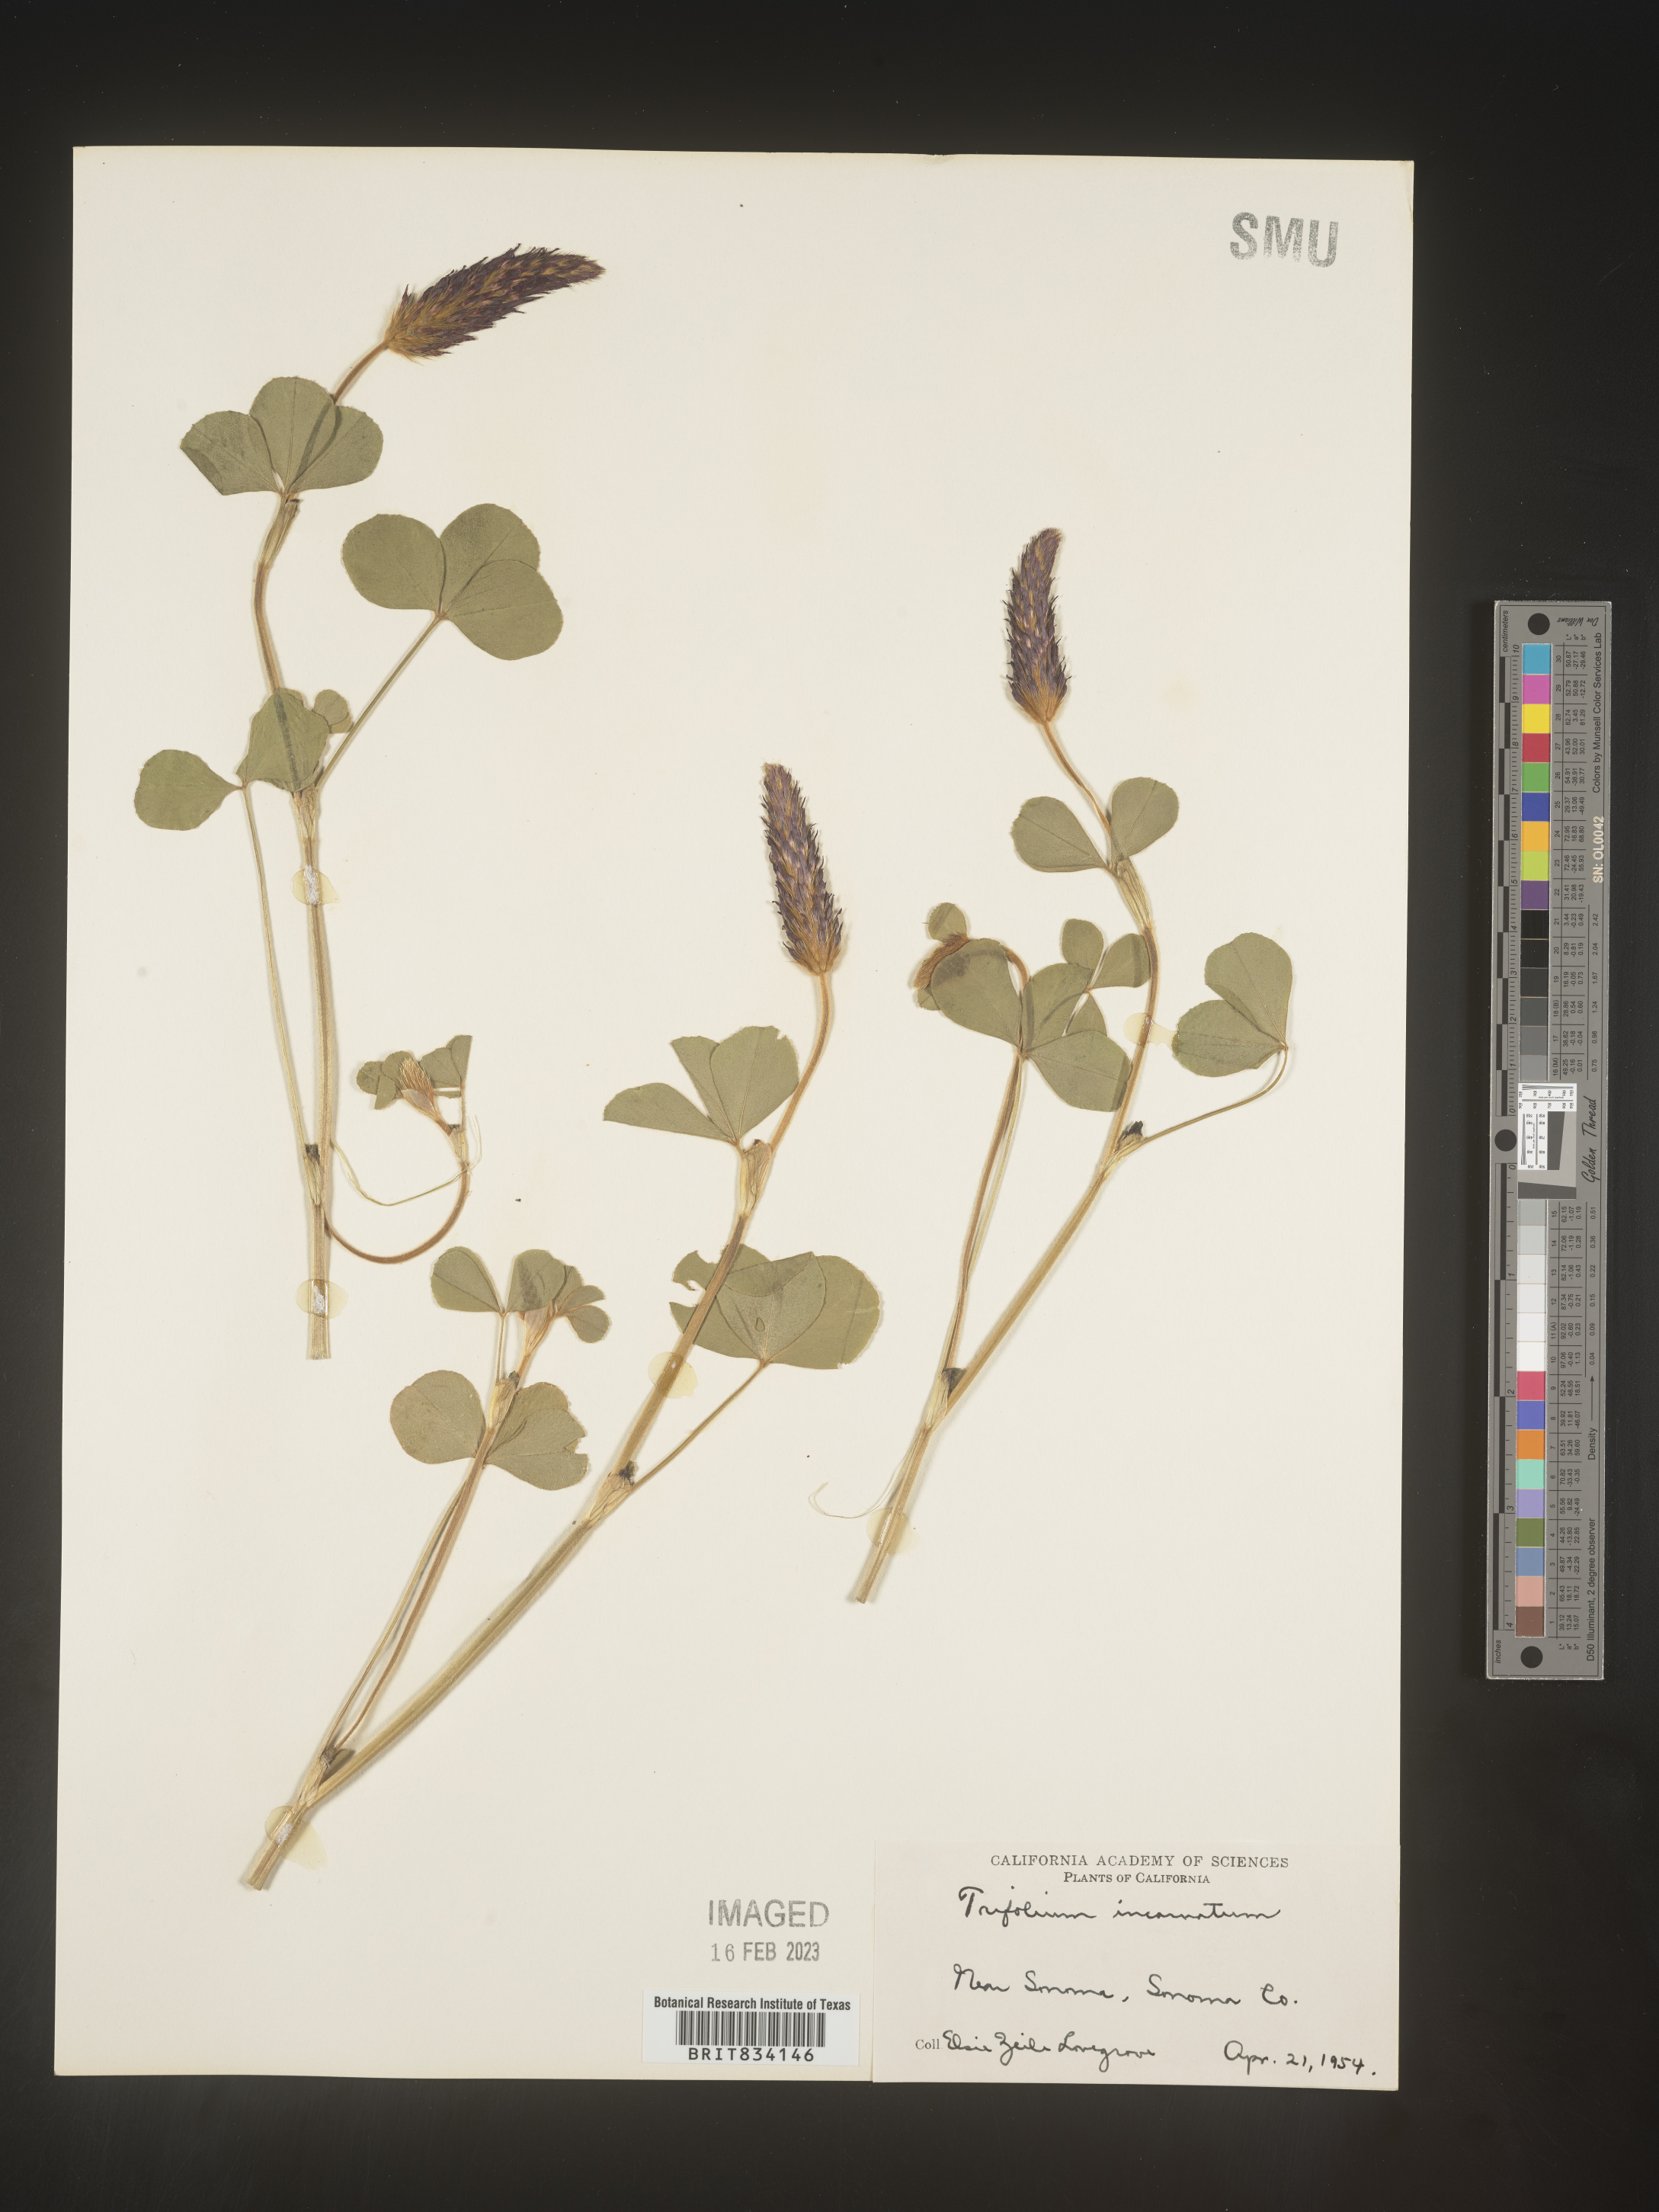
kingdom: Plantae
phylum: Tracheophyta
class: Magnoliopsida
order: Fabales
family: Fabaceae
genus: Trifolium
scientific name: Trifolium incarnatum
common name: Crimson clover
